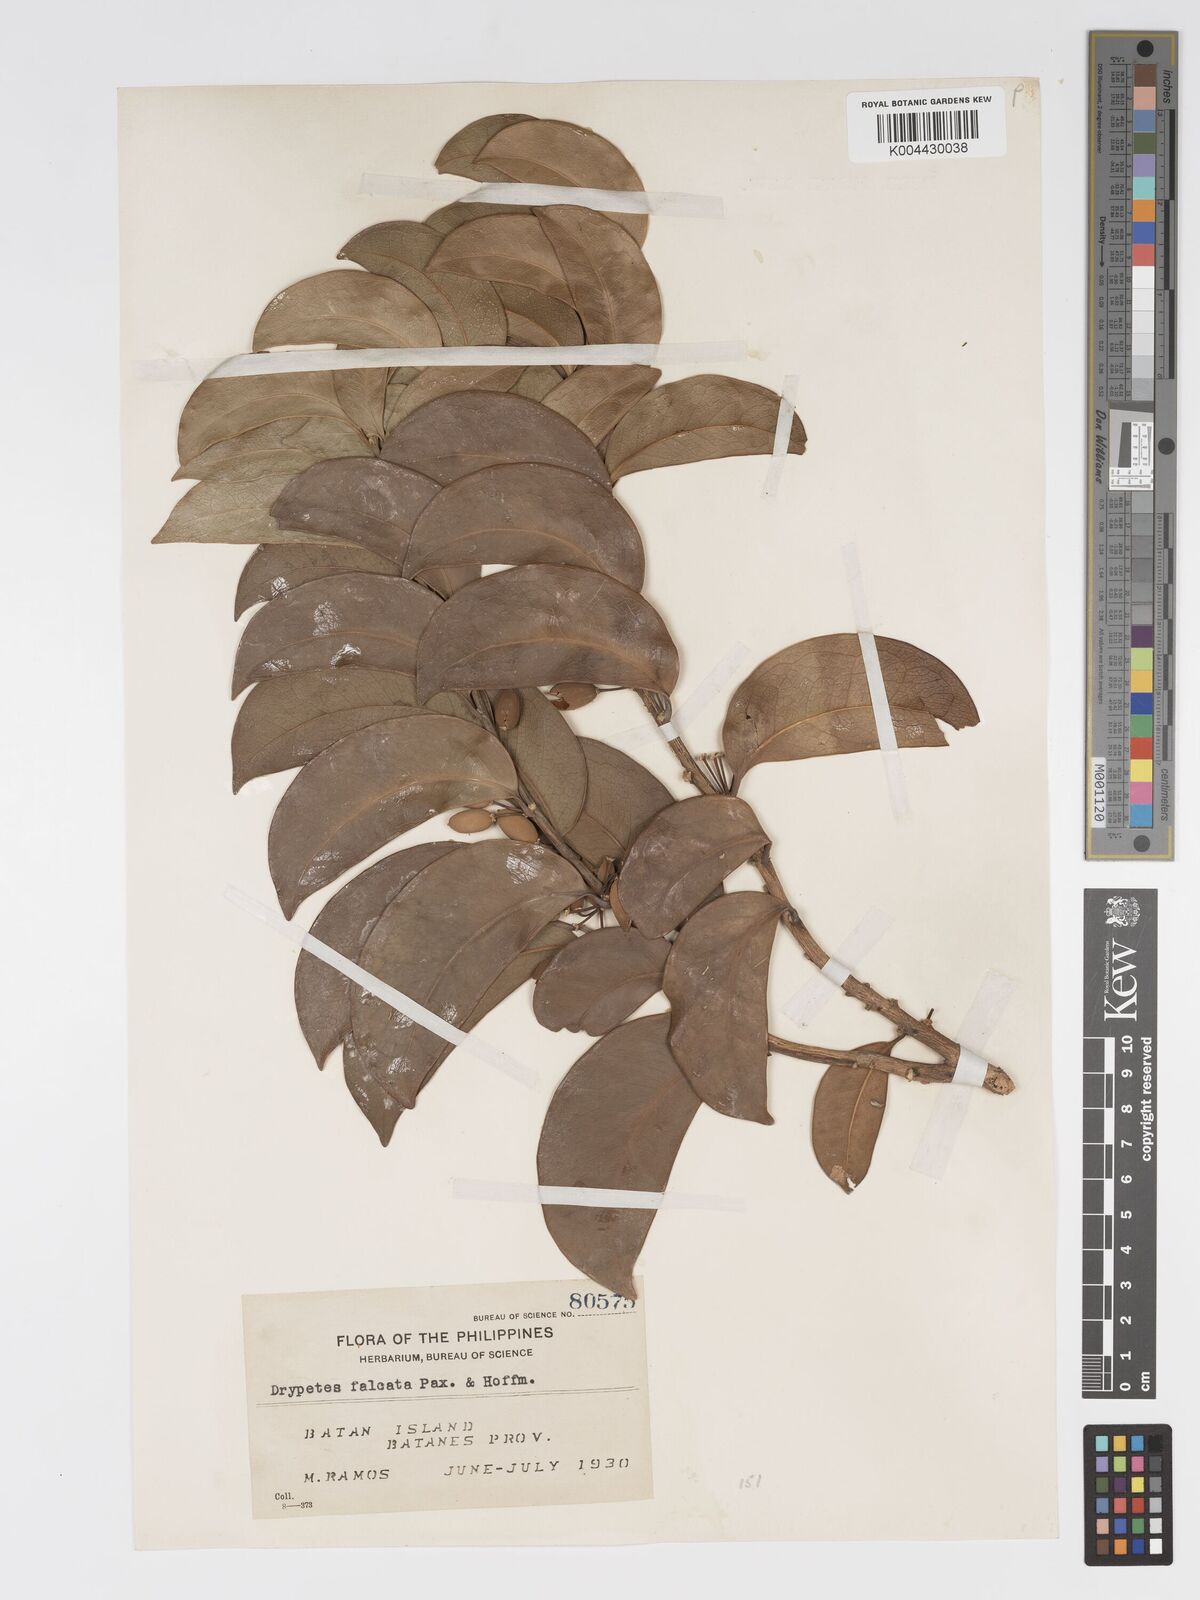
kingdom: Plantae
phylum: Tracheophyta
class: Magnoliopsida
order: Malpighiales
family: Putranjivaceae
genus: Drypetes
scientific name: Drypetes falcata
